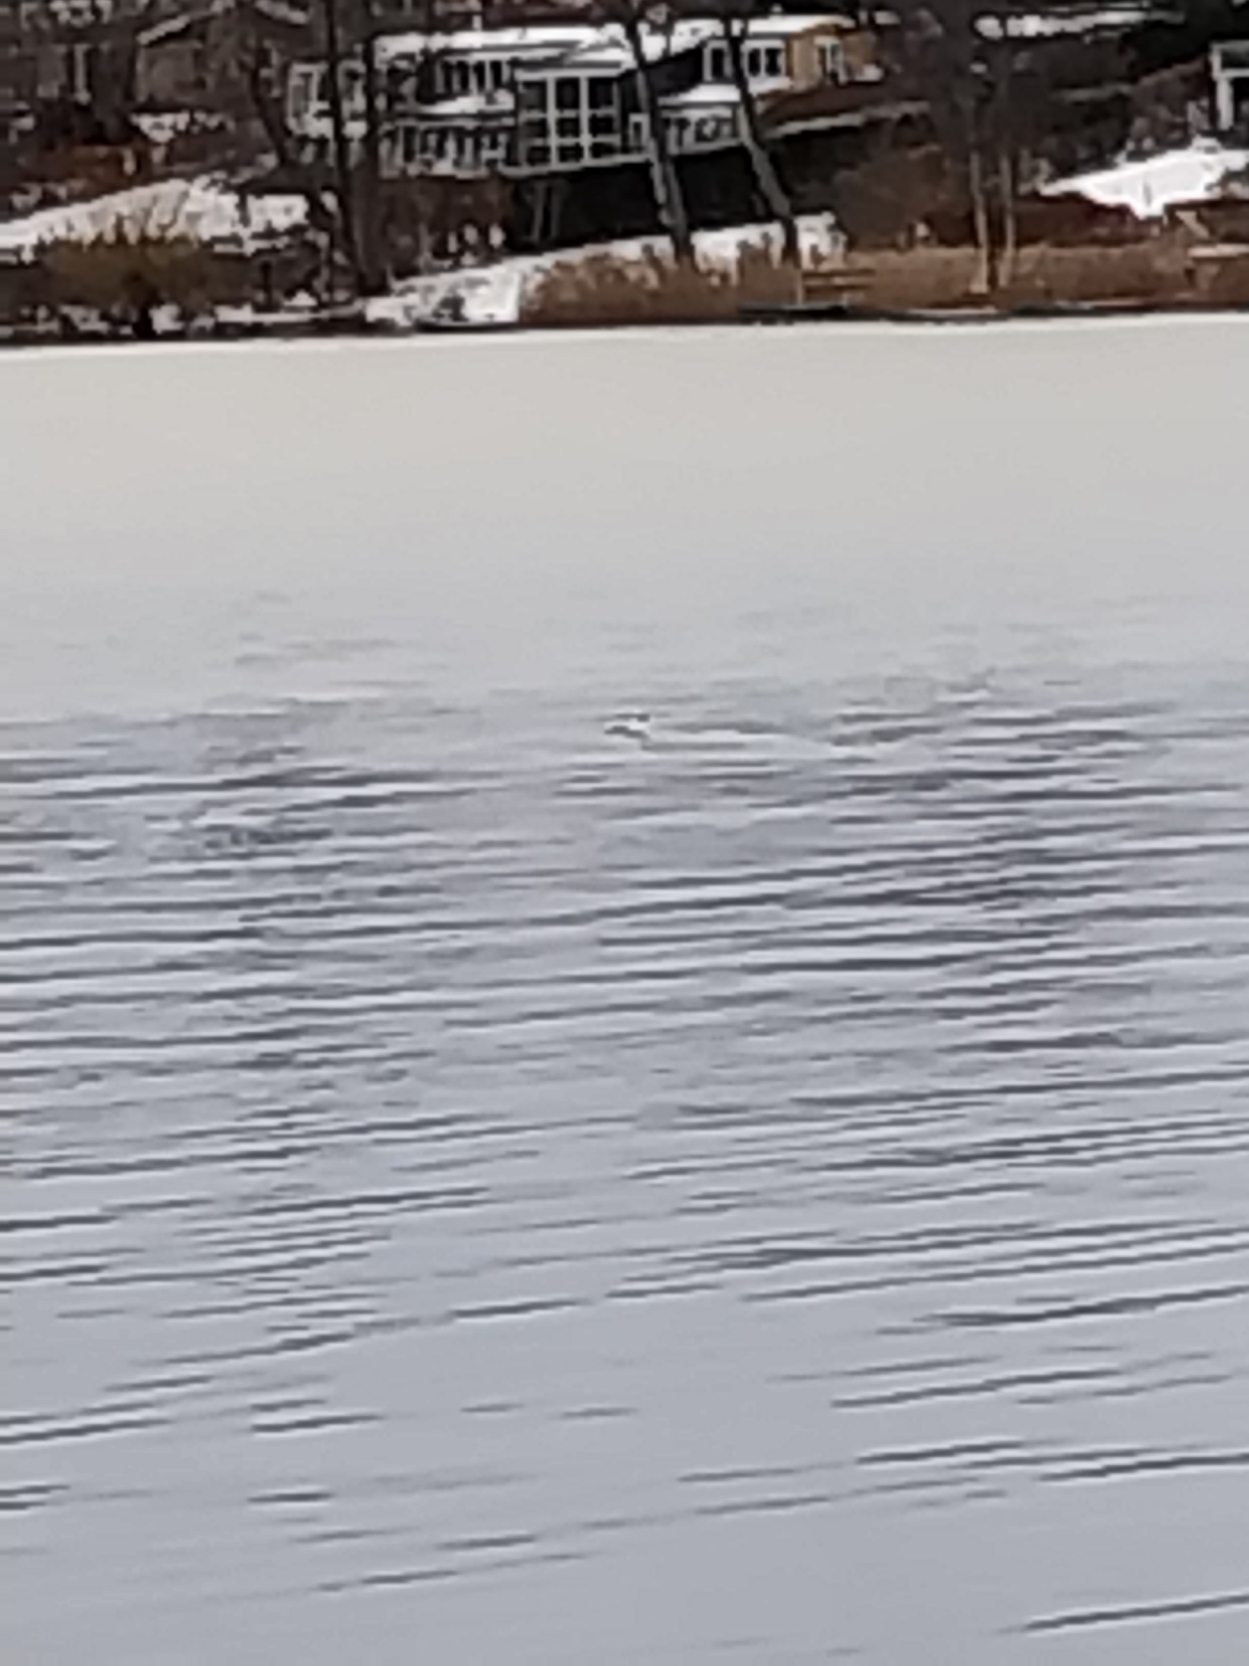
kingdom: Animalia
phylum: Chordata
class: Aves
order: Anseriformes
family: Anatidae
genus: Mergellus
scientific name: Mergellus albellus
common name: Lille skallesluger
